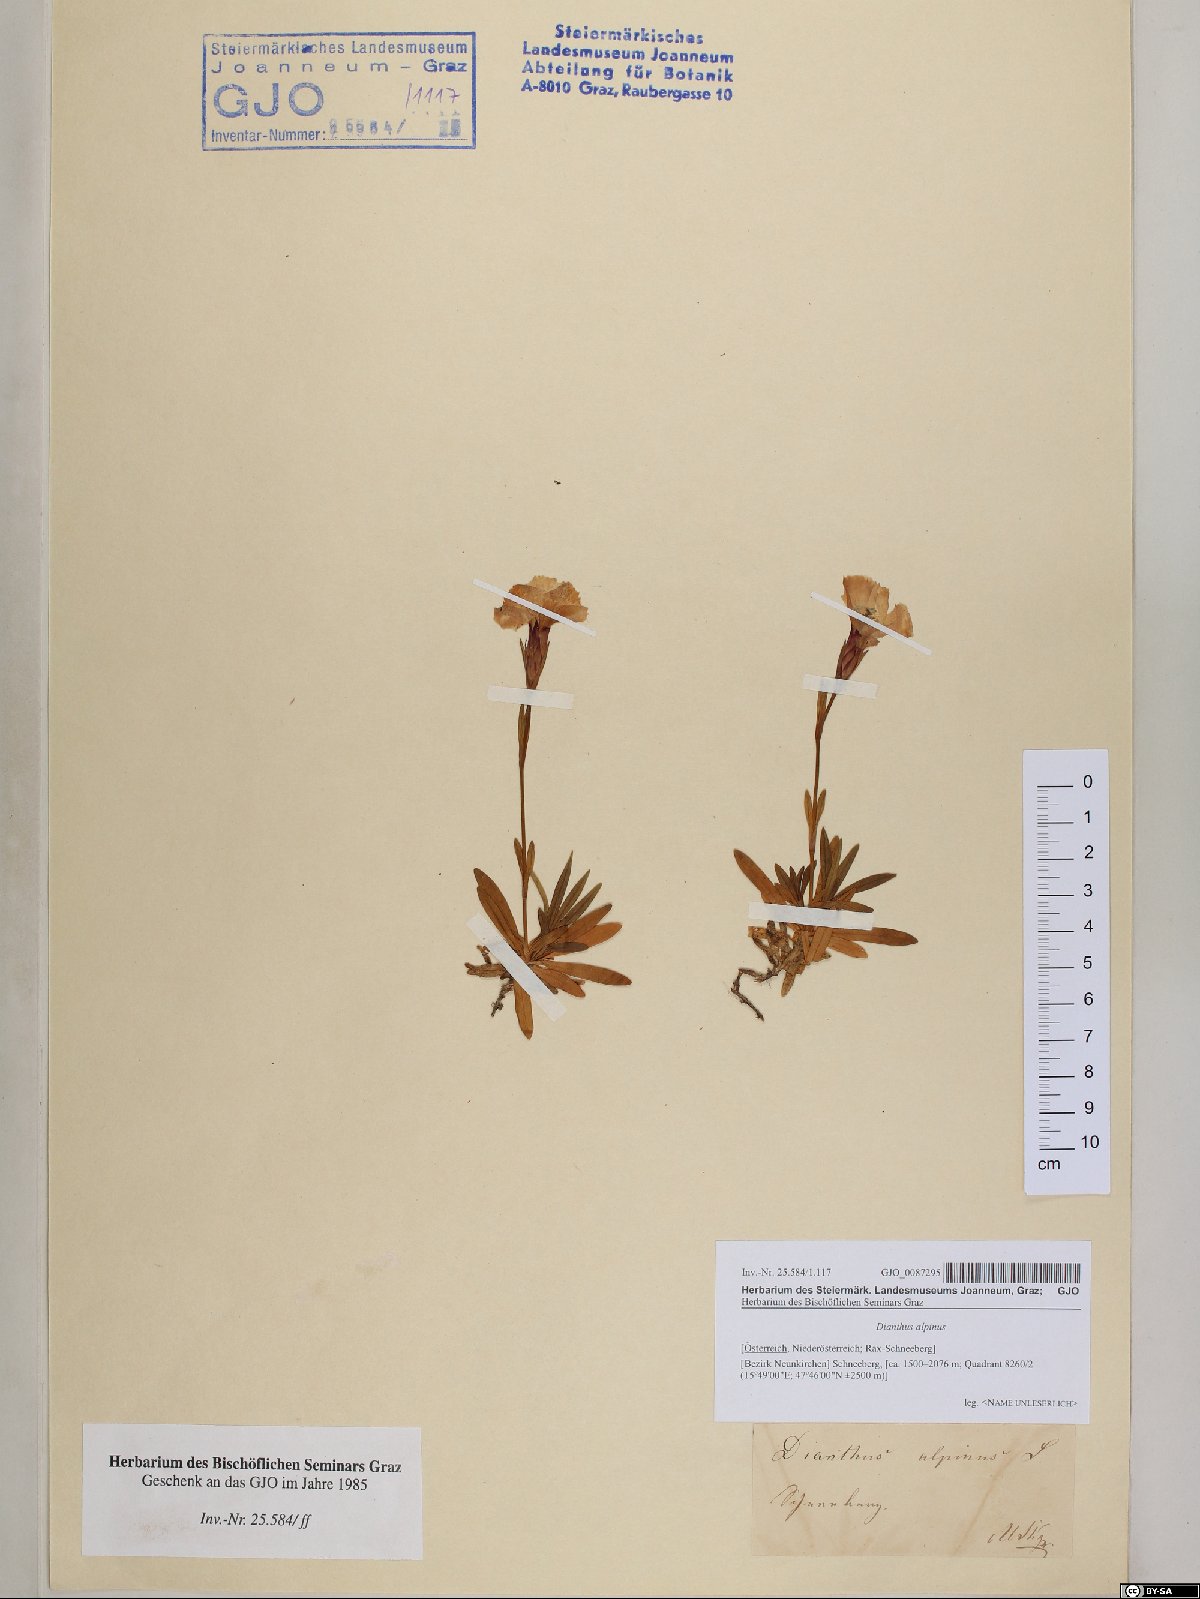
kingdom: Plantae
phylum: Tracheophyta
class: Magnoliopsida
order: Caryophyllales
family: Caryophyllaceae
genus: Dianthus
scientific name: Dianthus alpinus
